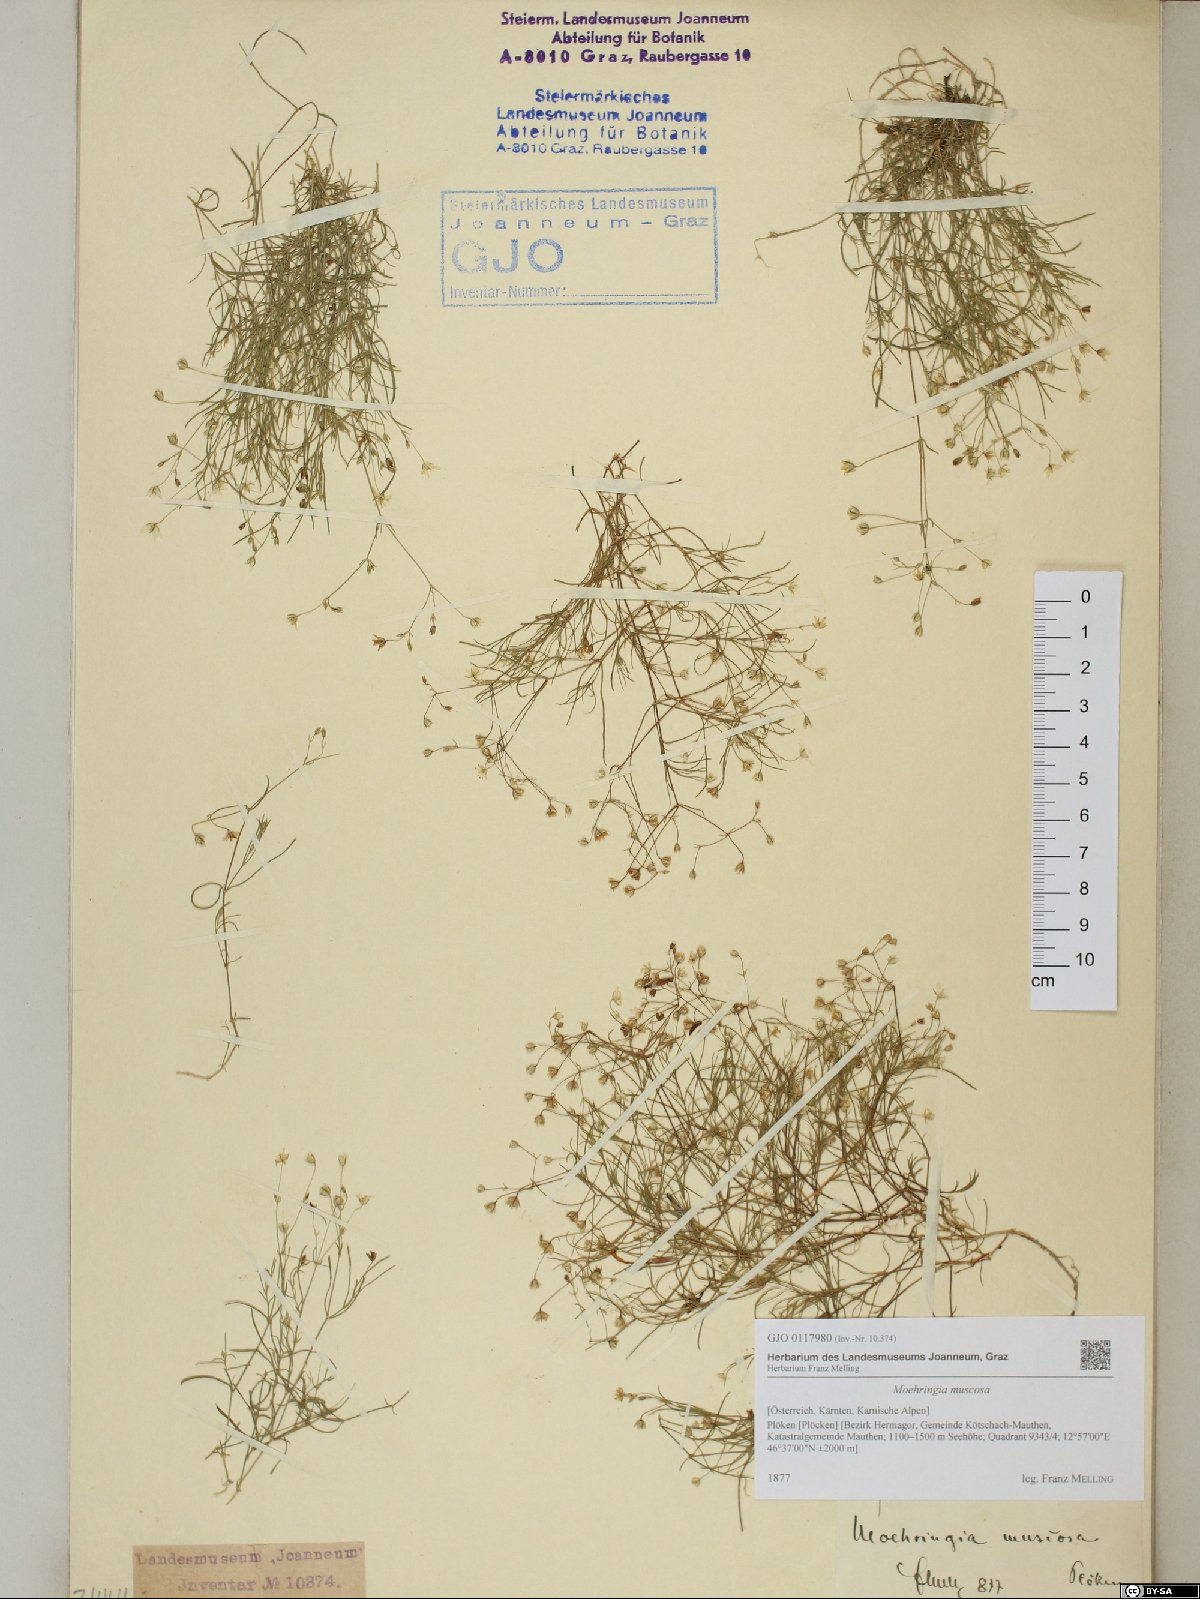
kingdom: Plantae
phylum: Tracheophyta
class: Magnoliopsida
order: Caryophyllales
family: Caryophyllaceae
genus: Moehringia
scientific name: Moehringia muscosa
